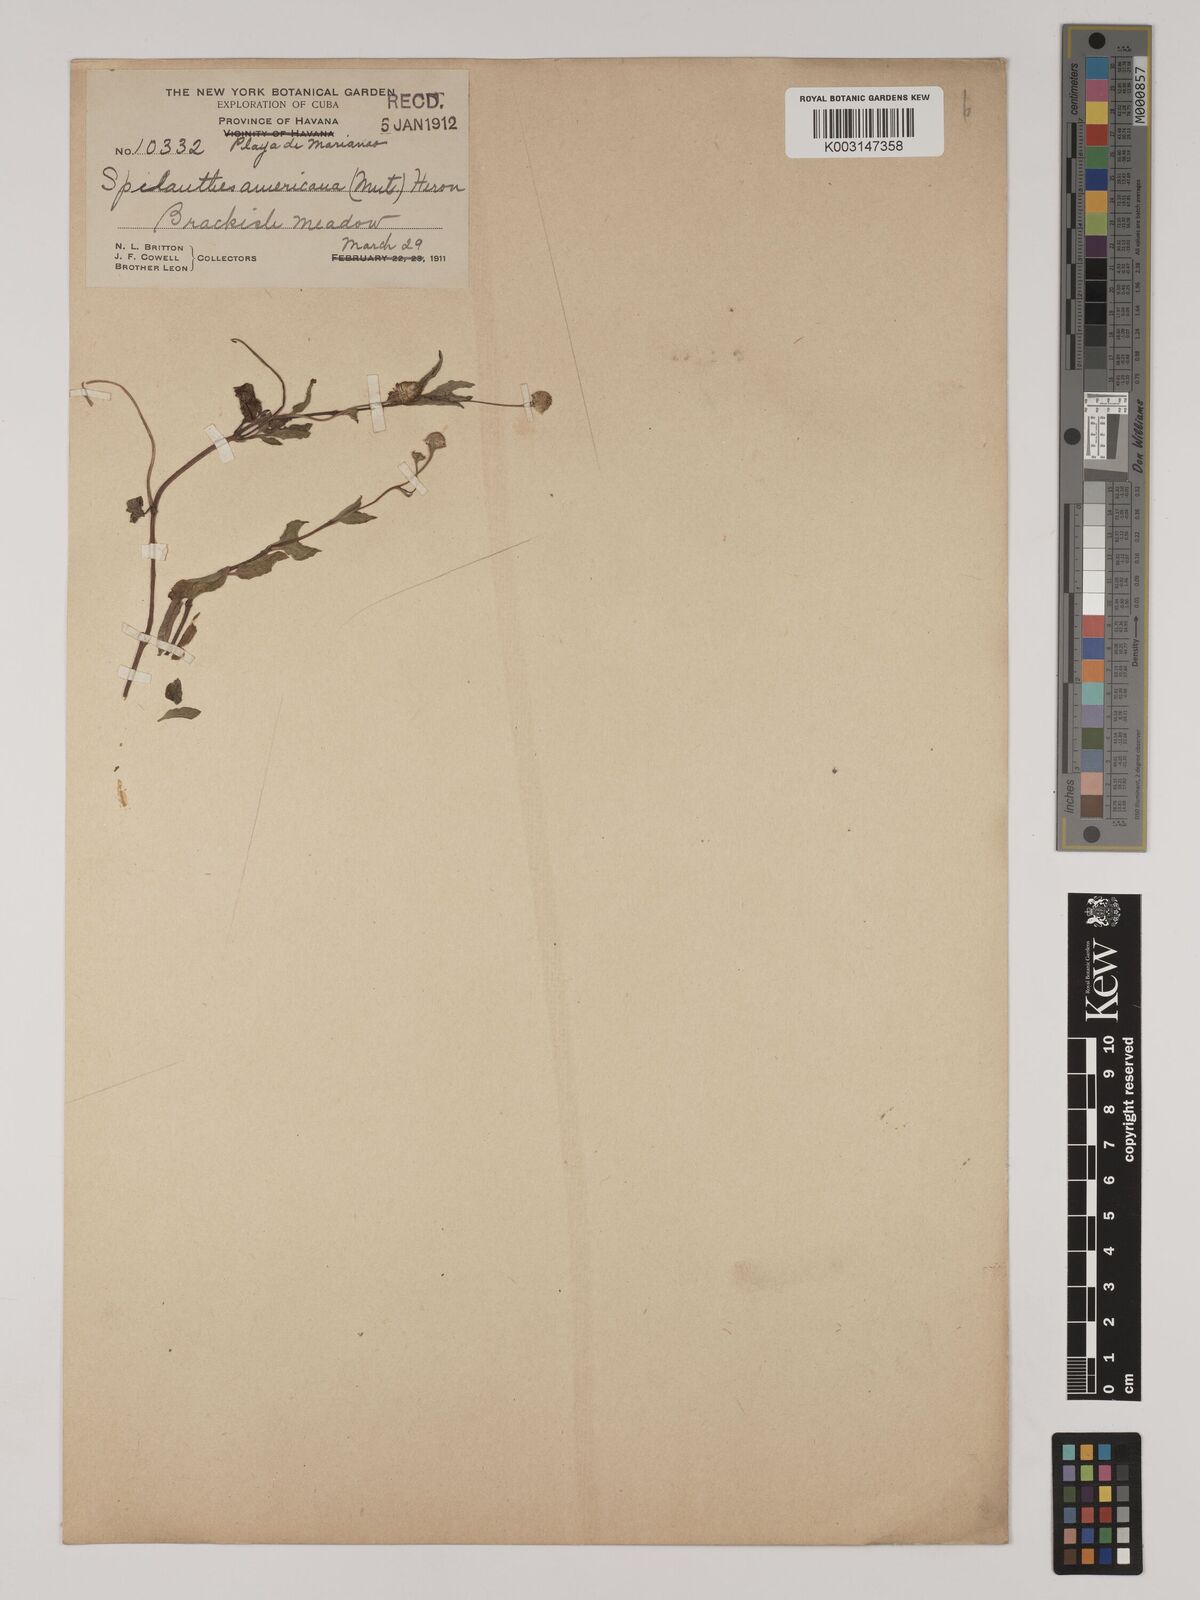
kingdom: Plantae
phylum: Tracheophyta
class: Magnoliopsida
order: Asterales
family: Asteraceae
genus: Heliopsis
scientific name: Heliopsis buphthalmoides
